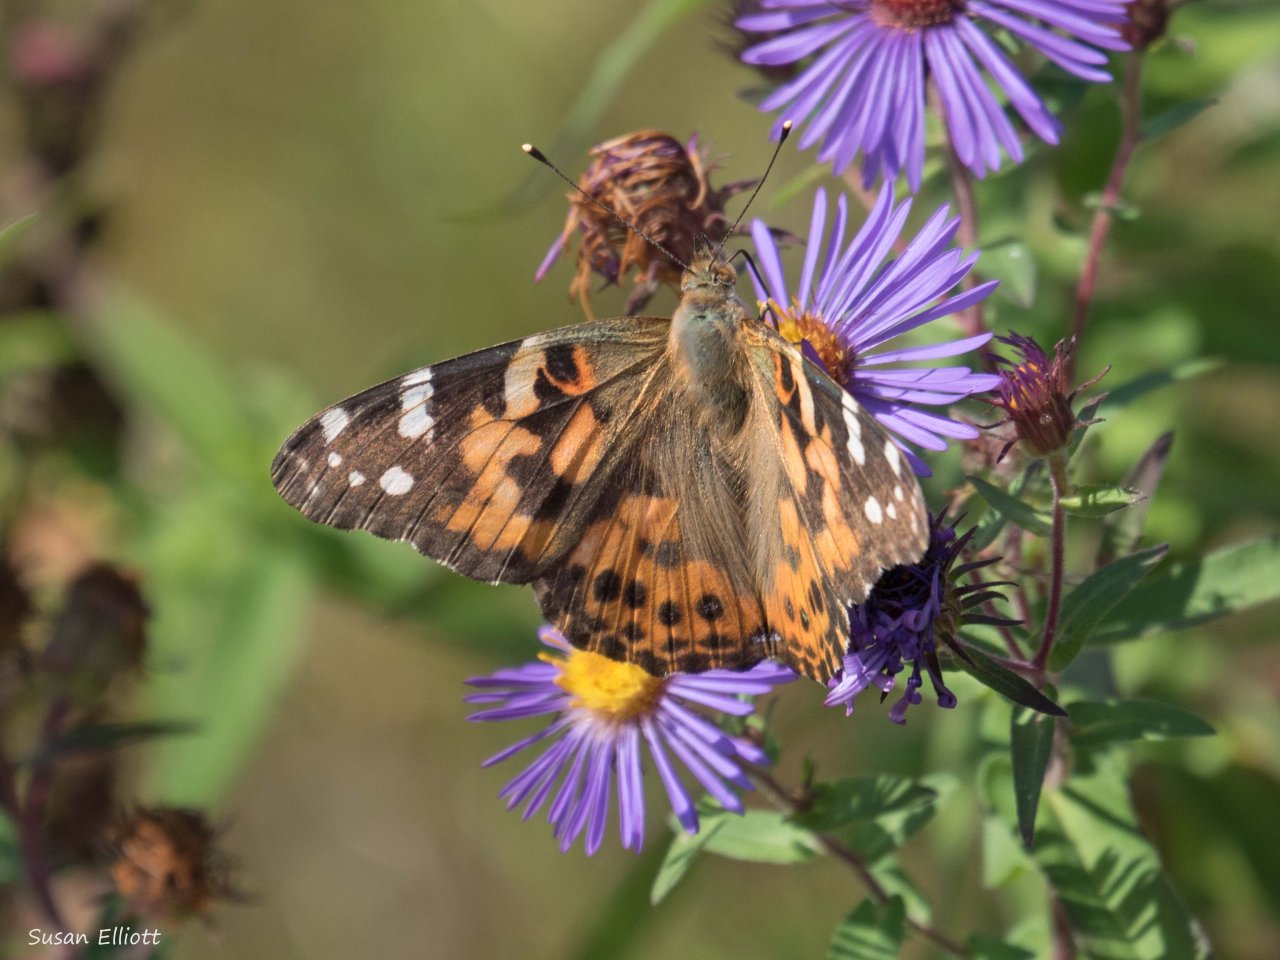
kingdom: Animalia
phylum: Arthropoda
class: Insecta
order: Lepidoptera
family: Nymphalidae
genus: Vanessa
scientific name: Vanessa cardui
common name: Painted Lady
